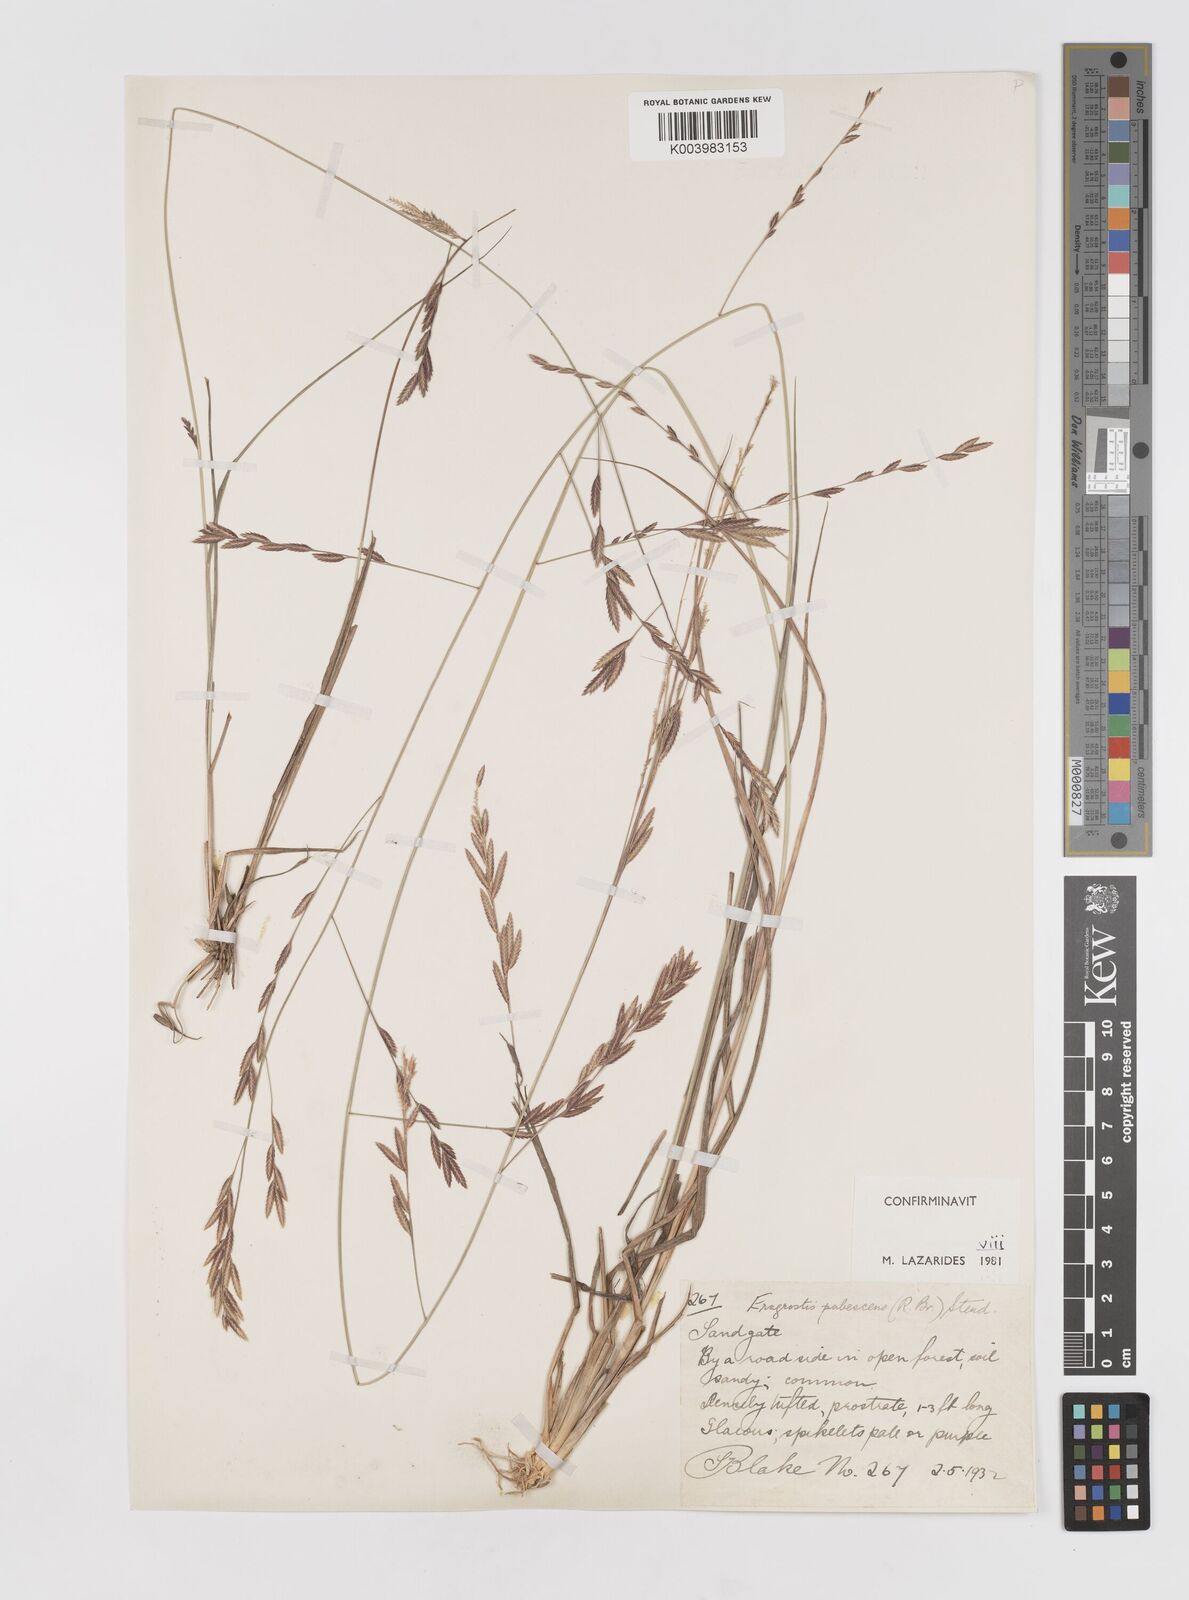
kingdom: Plantae
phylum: Tracheophyta
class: Liliopsida
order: Poales
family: Poaceae
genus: Eragrostis
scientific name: Eragrostis pubescens
